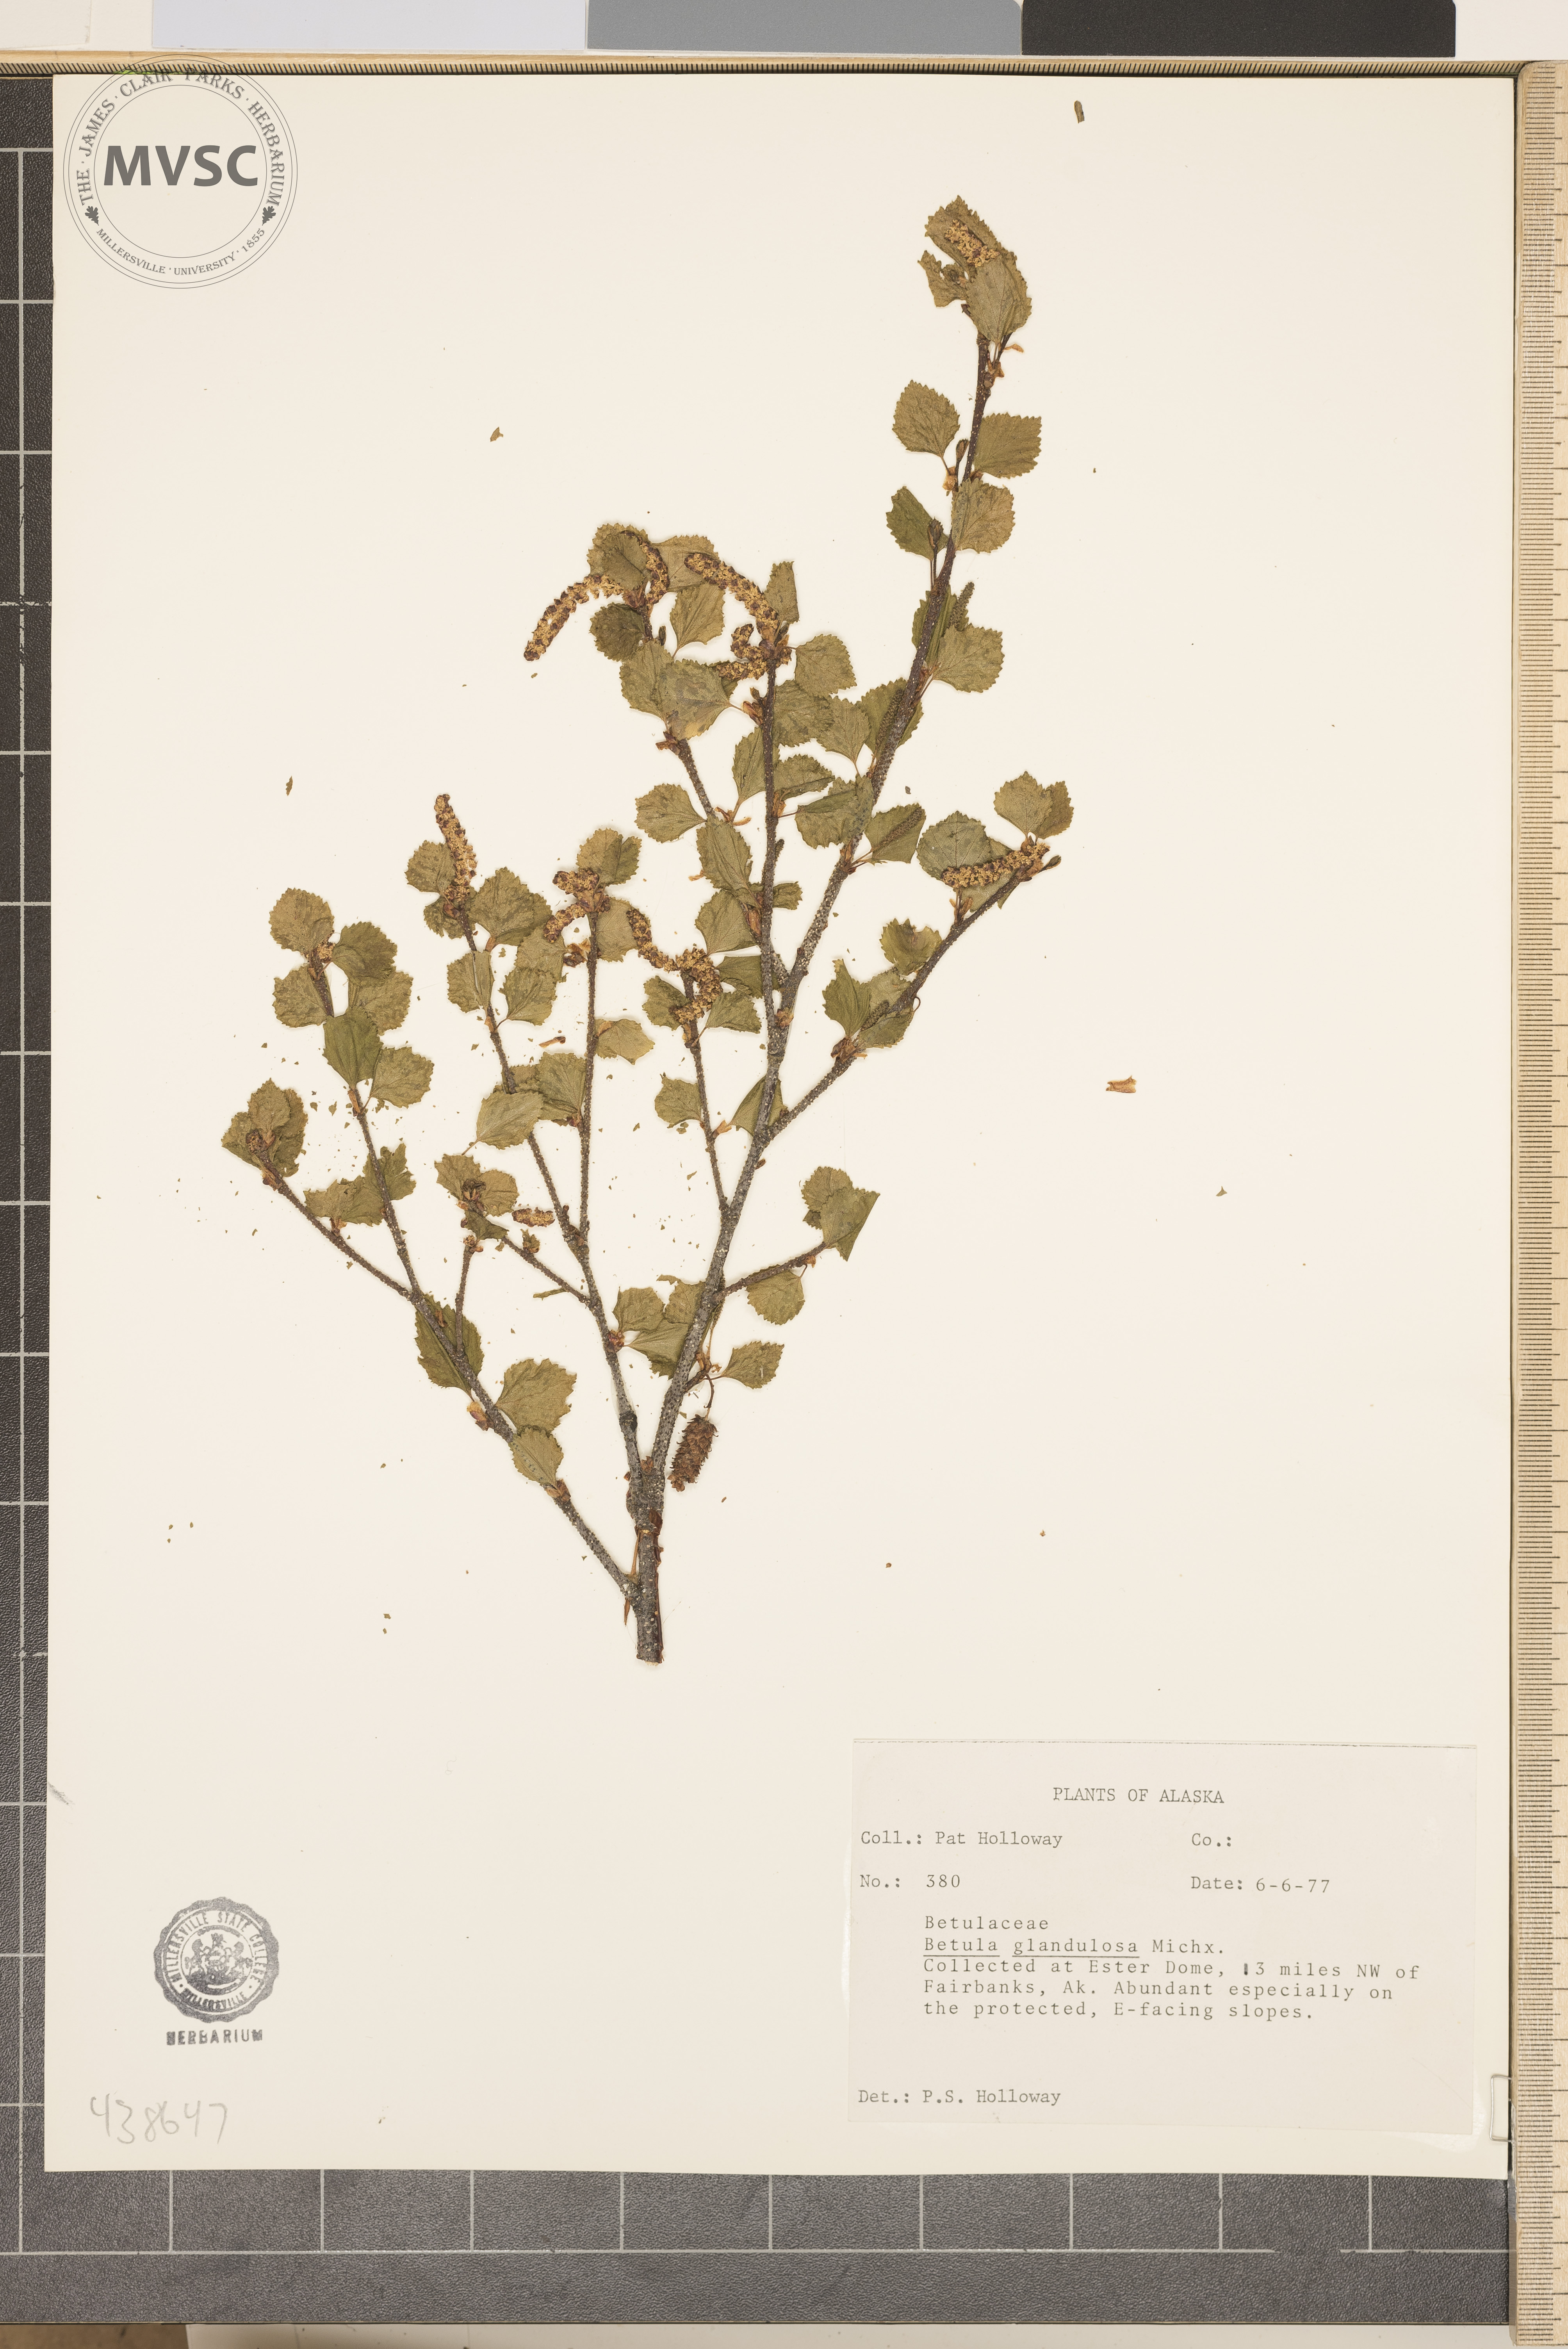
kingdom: Plantae
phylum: Tracheophyta
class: Magnoliopsida
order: Fagales
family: Betulaceae
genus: Betula
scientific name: Betula glandulosa
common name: Dwarf birch
